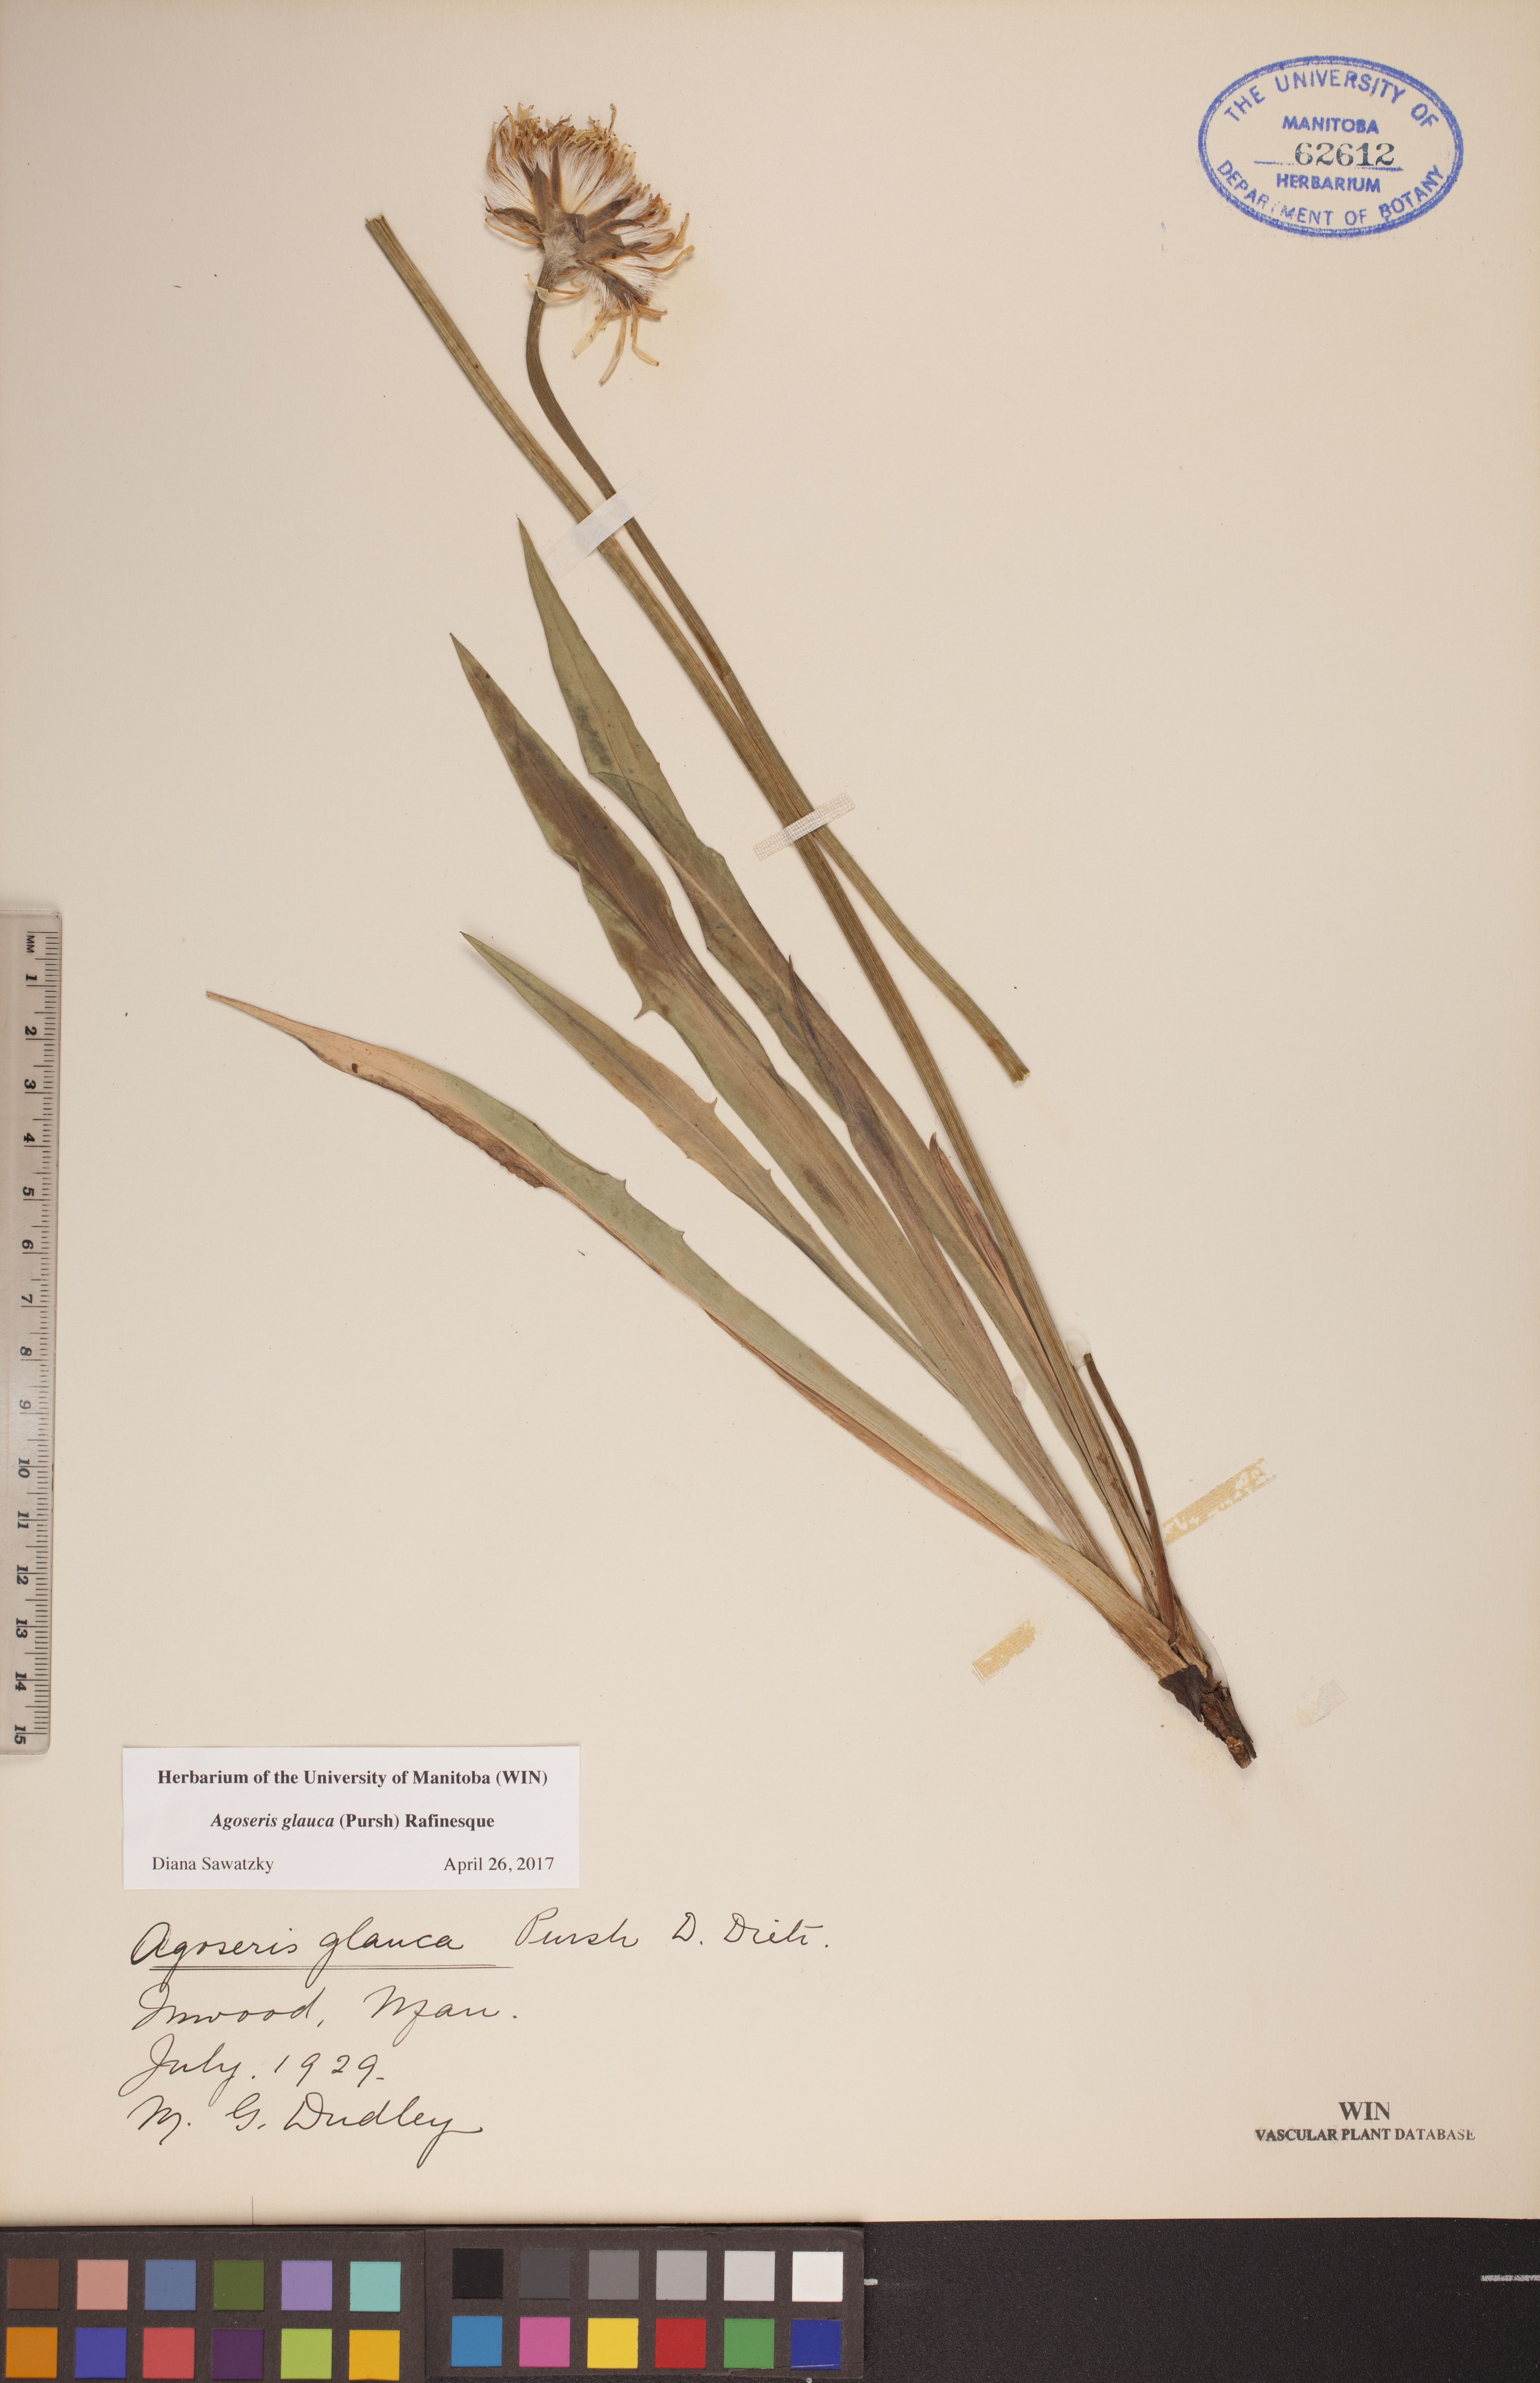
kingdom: Plantae
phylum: Tracheophyta
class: Magnoliopsida
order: Asterales
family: Asteraceae
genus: Agoseris
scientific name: Agoseris glauca
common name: Prairie agoseris
